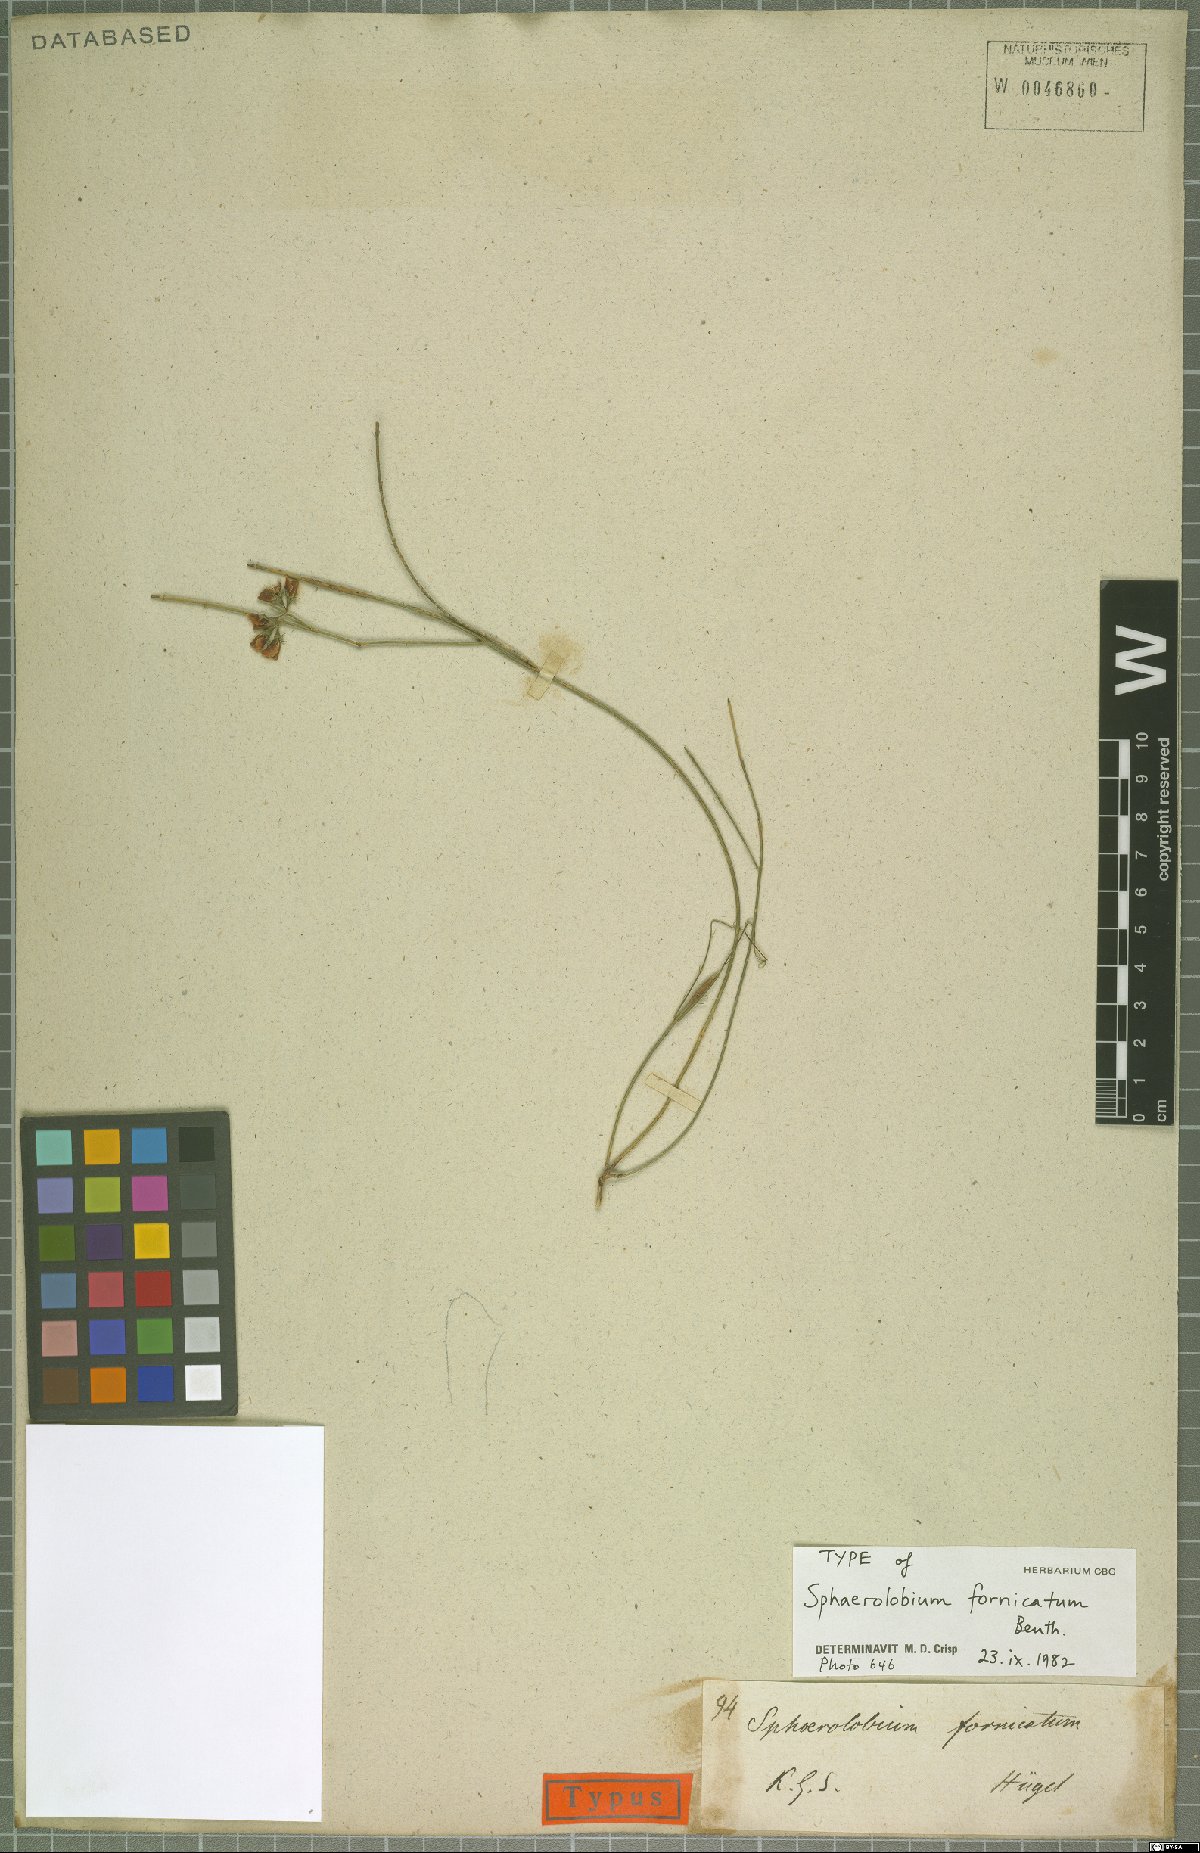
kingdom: Plantae
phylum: Tracheophyta
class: Magnoliopsida
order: Fabales
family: Fabaceae
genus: Sphaerolobium
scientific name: Sphaerolobium fornicatum
